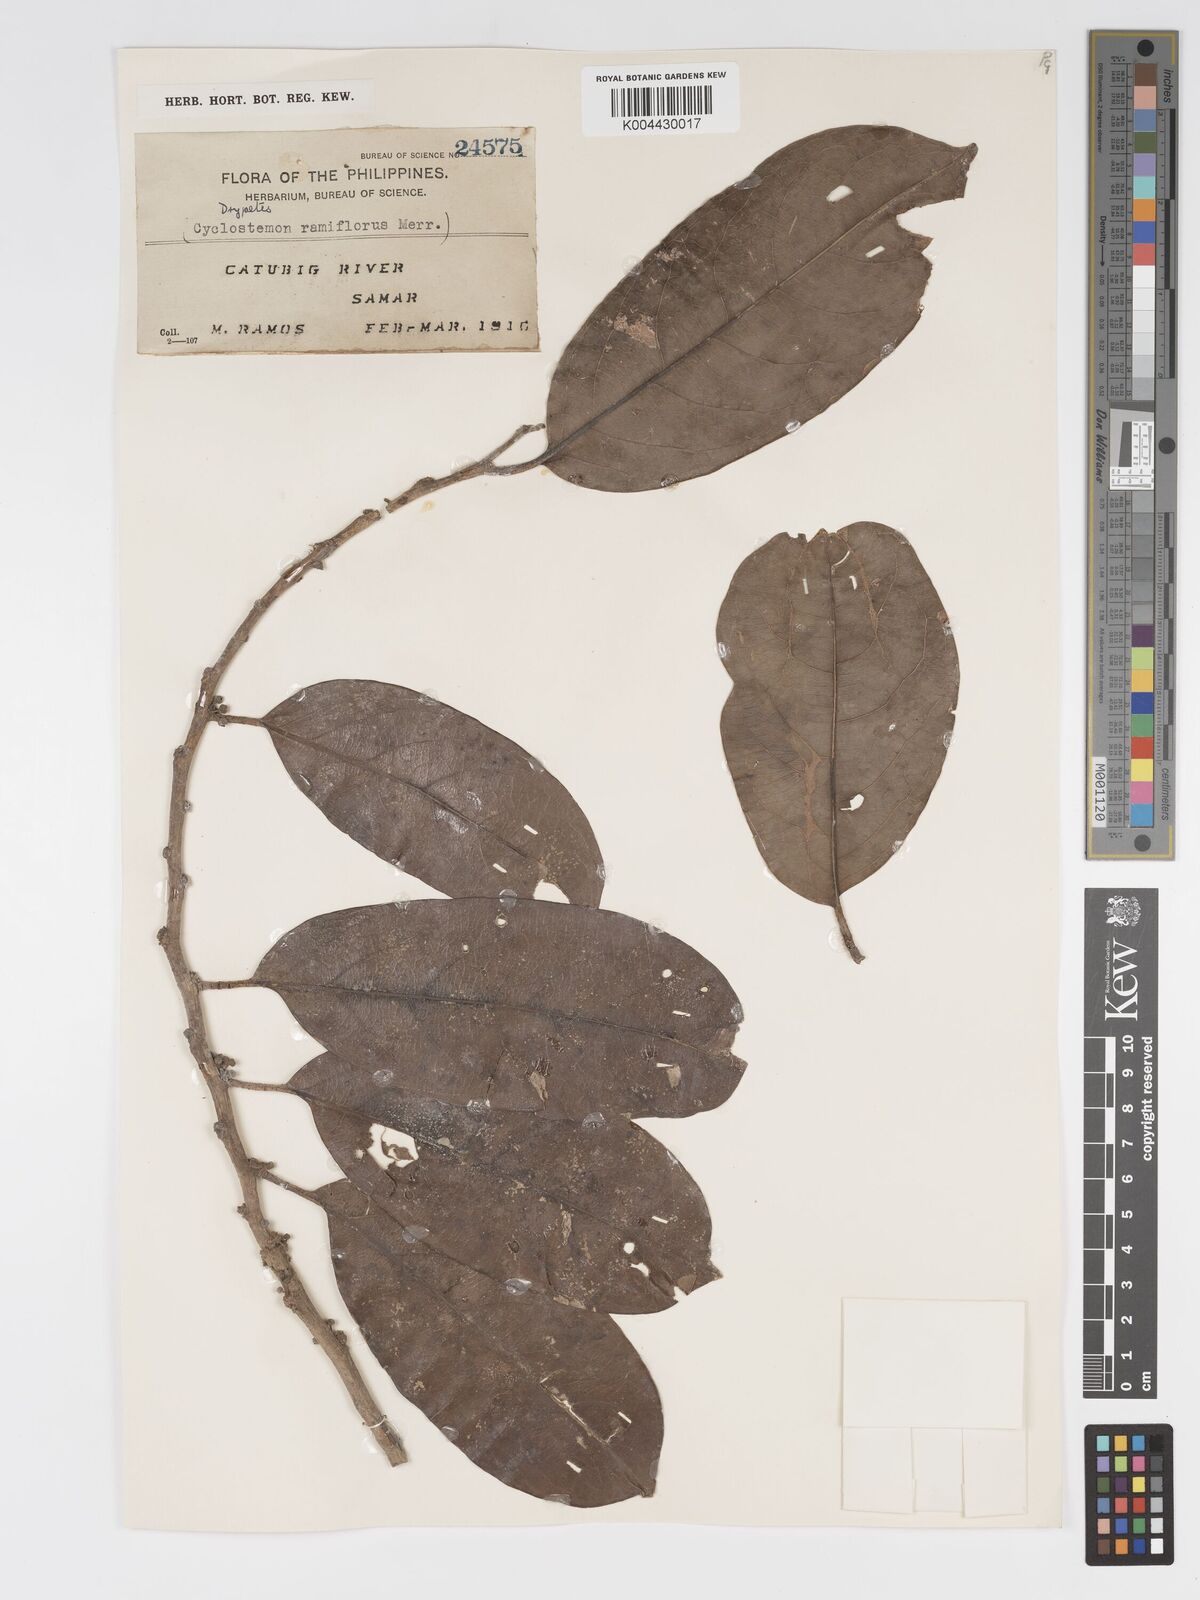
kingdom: Plantae
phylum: Tracheophyta
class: Magnoliopsida
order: Malpighiales
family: Putranjivaceae
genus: Drypetes
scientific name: Drypetes grandifolia
